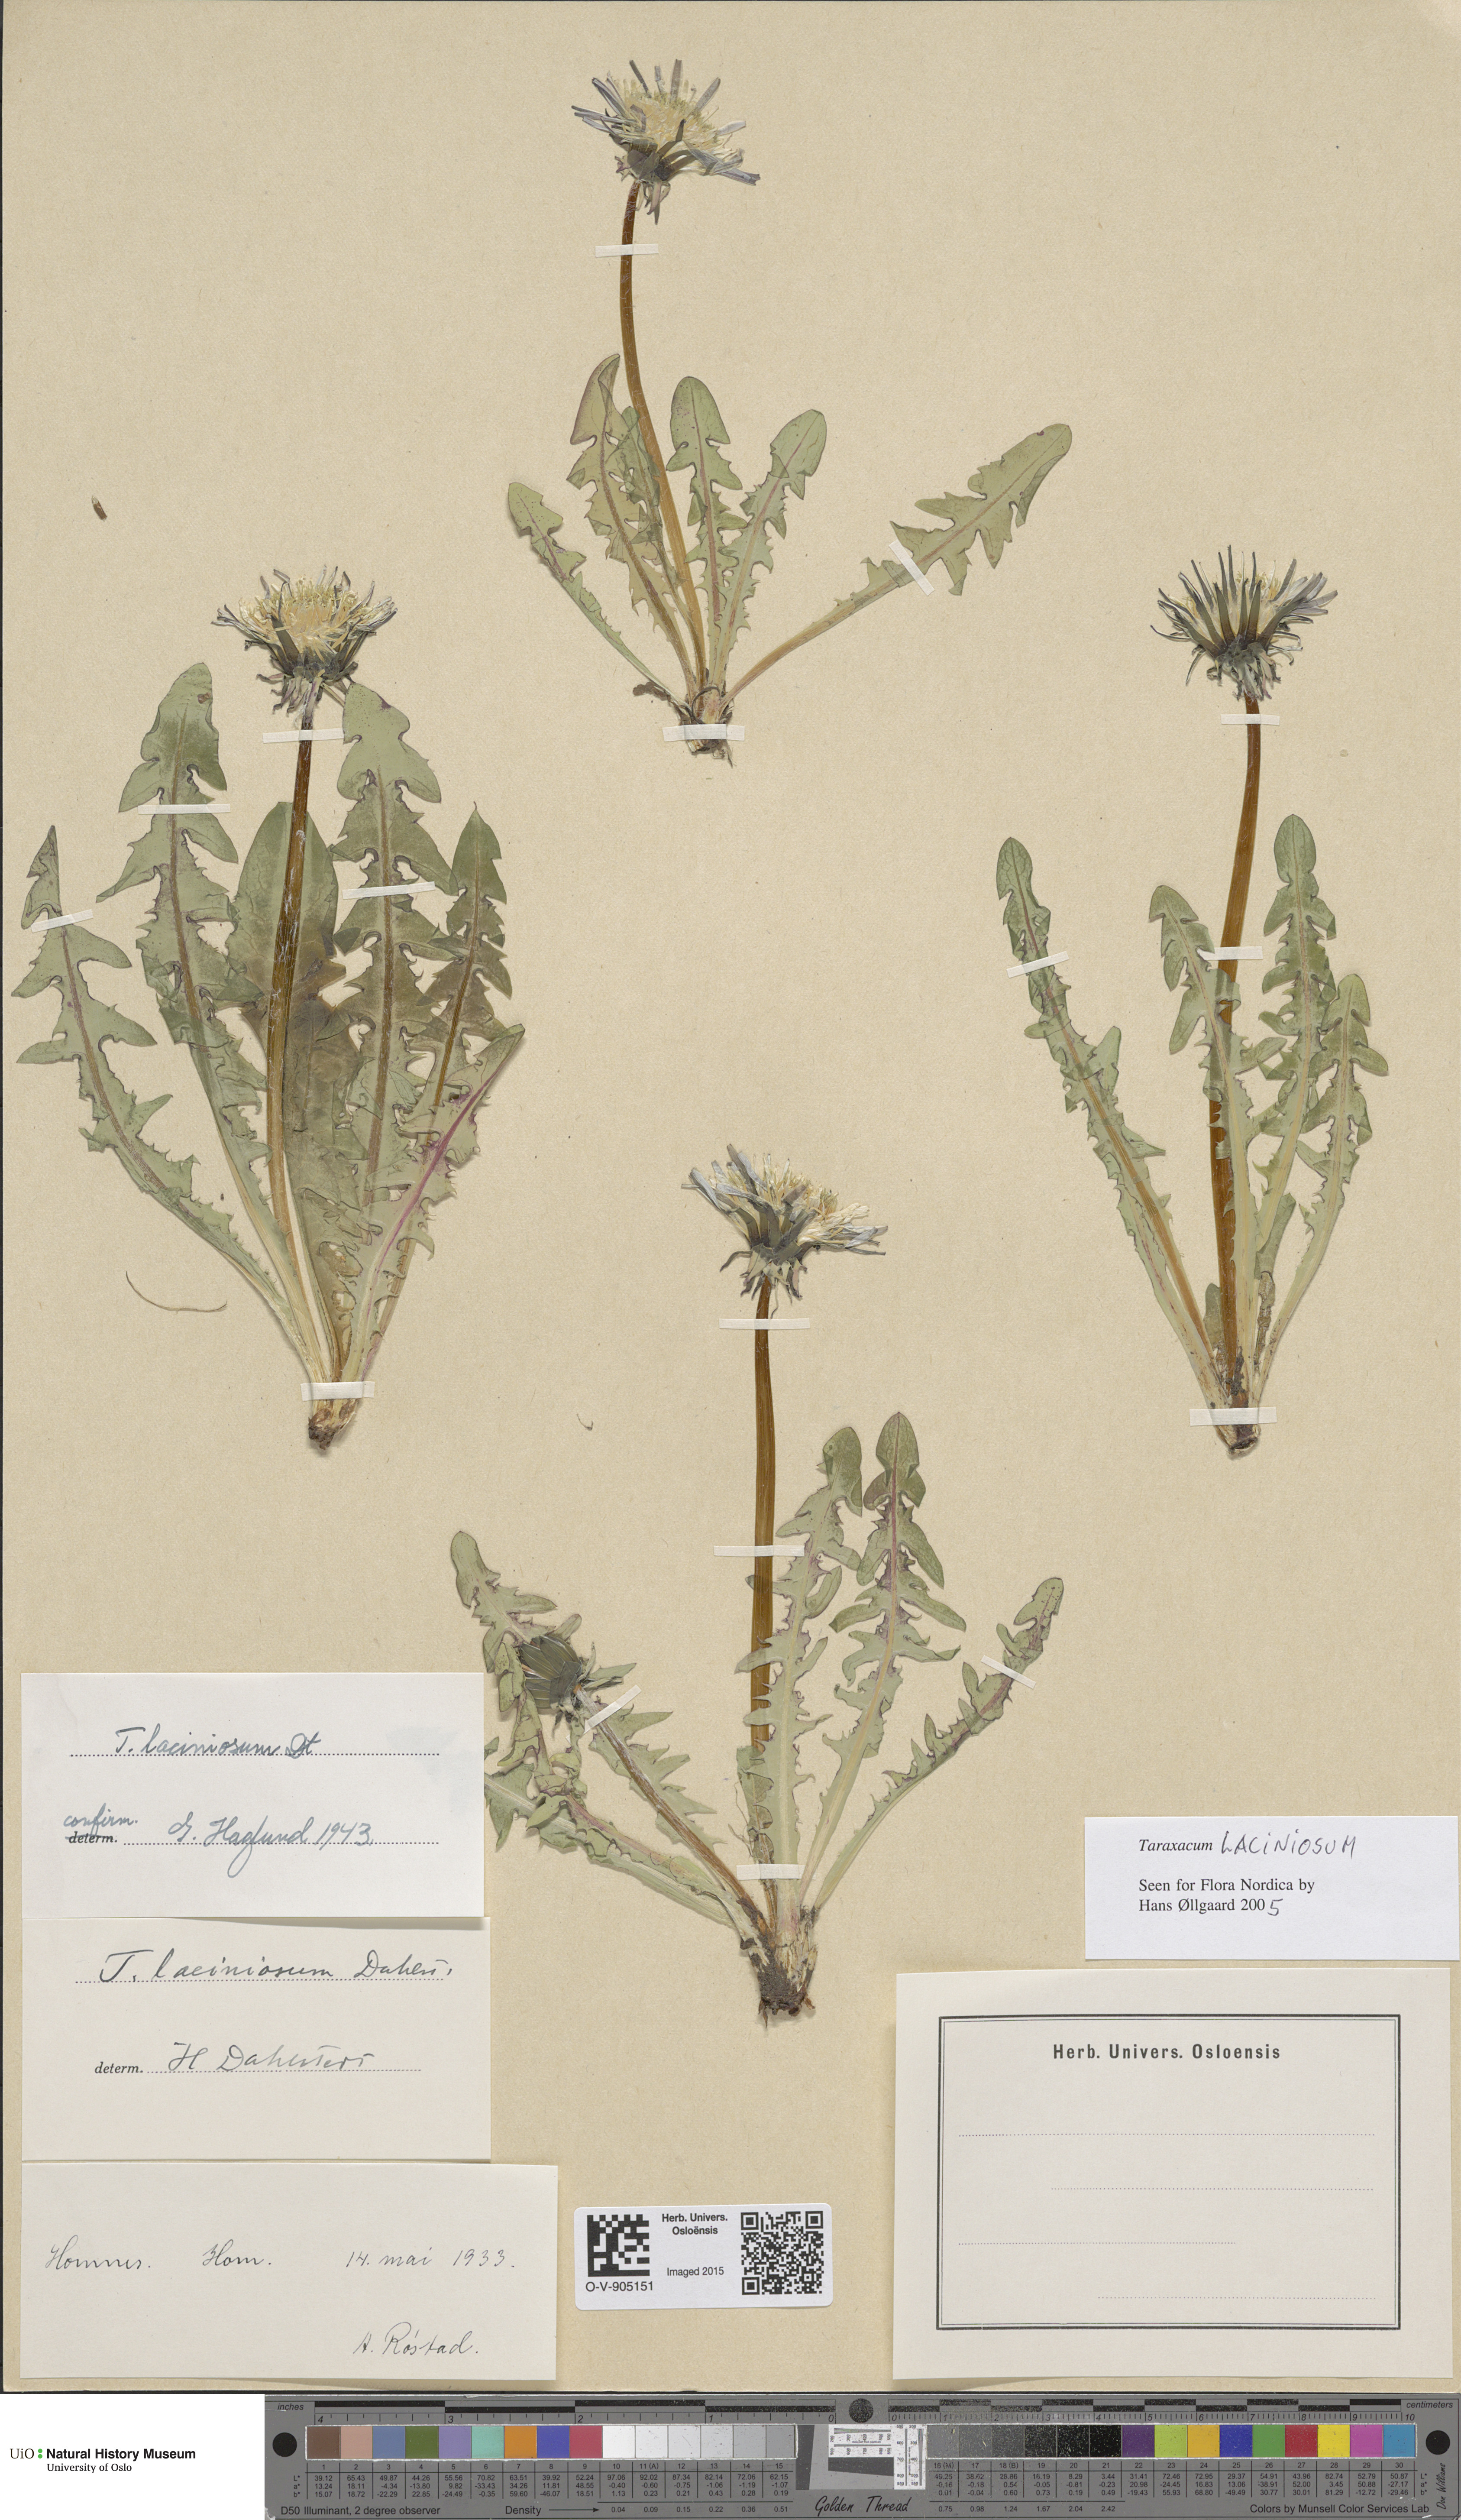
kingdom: Plantae
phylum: Tracheophyta
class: Magnoliopsida
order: Asterales
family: Asteraceae
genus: Taraxacum
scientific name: Taraxacum laciniosum
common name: Divided-leaved dandelion
